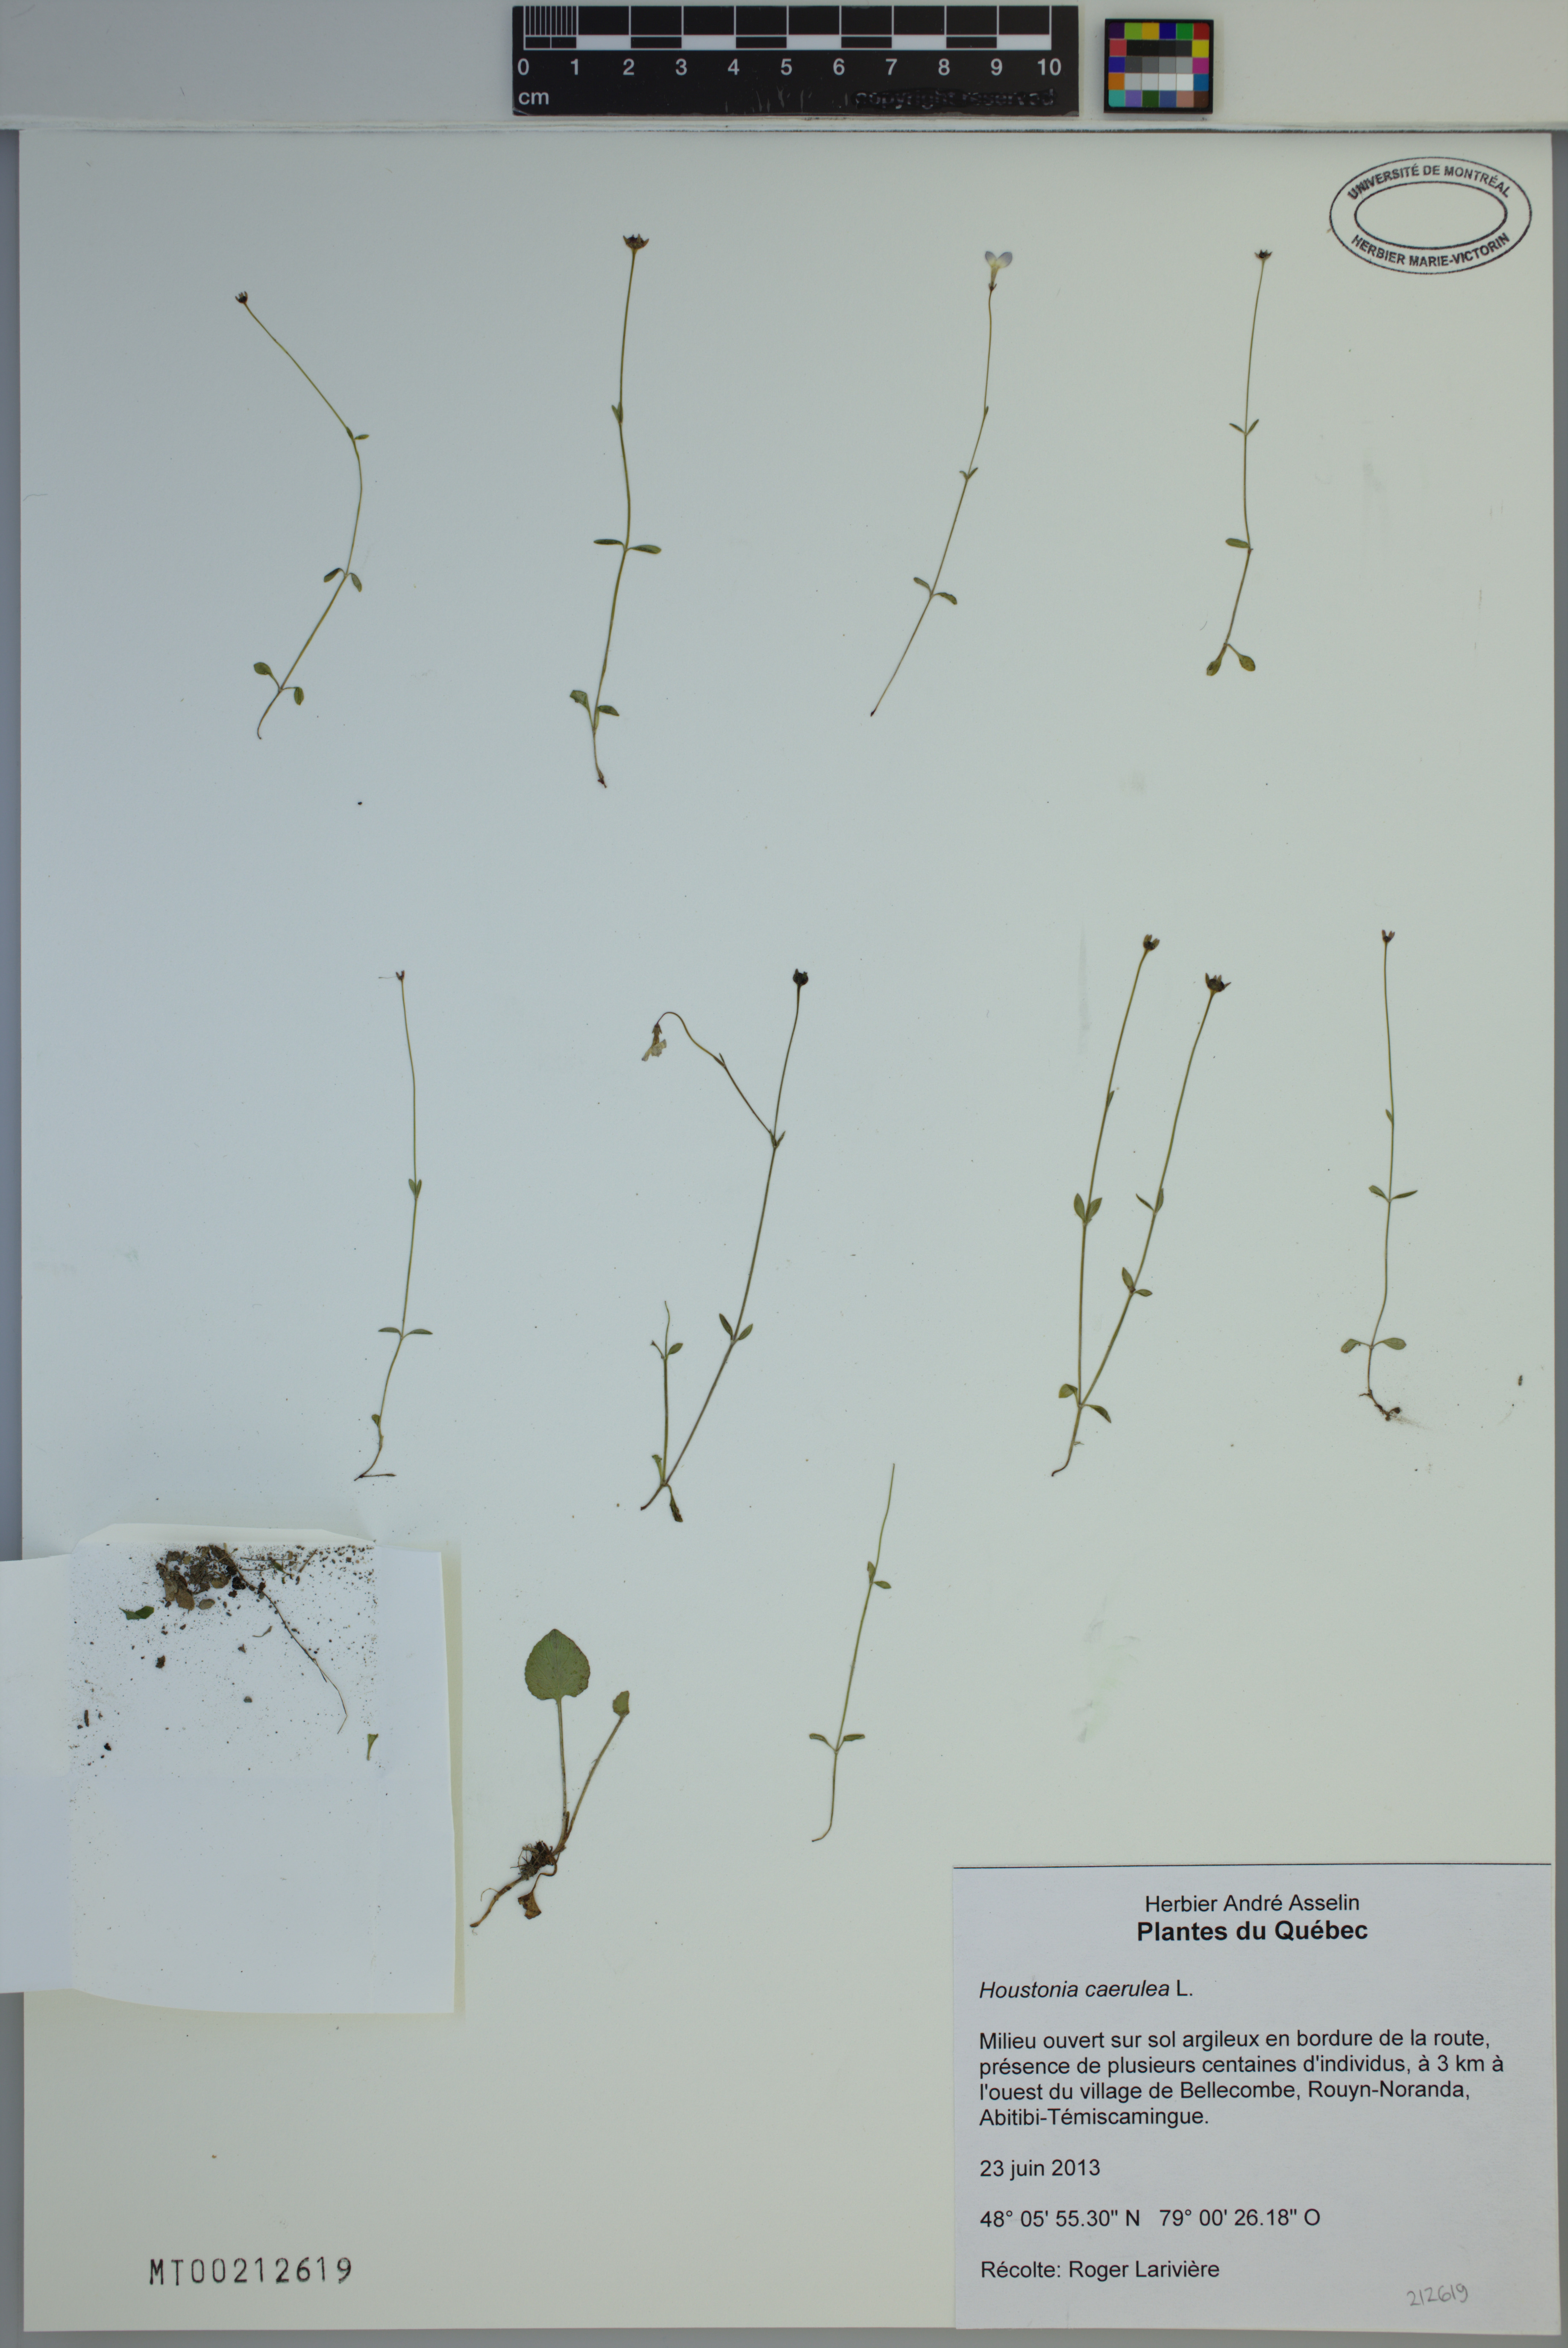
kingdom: Plantae
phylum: Tracheophyta
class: Magnoliopsida
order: Gentianales
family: Rubiaceae
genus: Houstonia
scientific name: Houstonia caerulea
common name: Bluets
